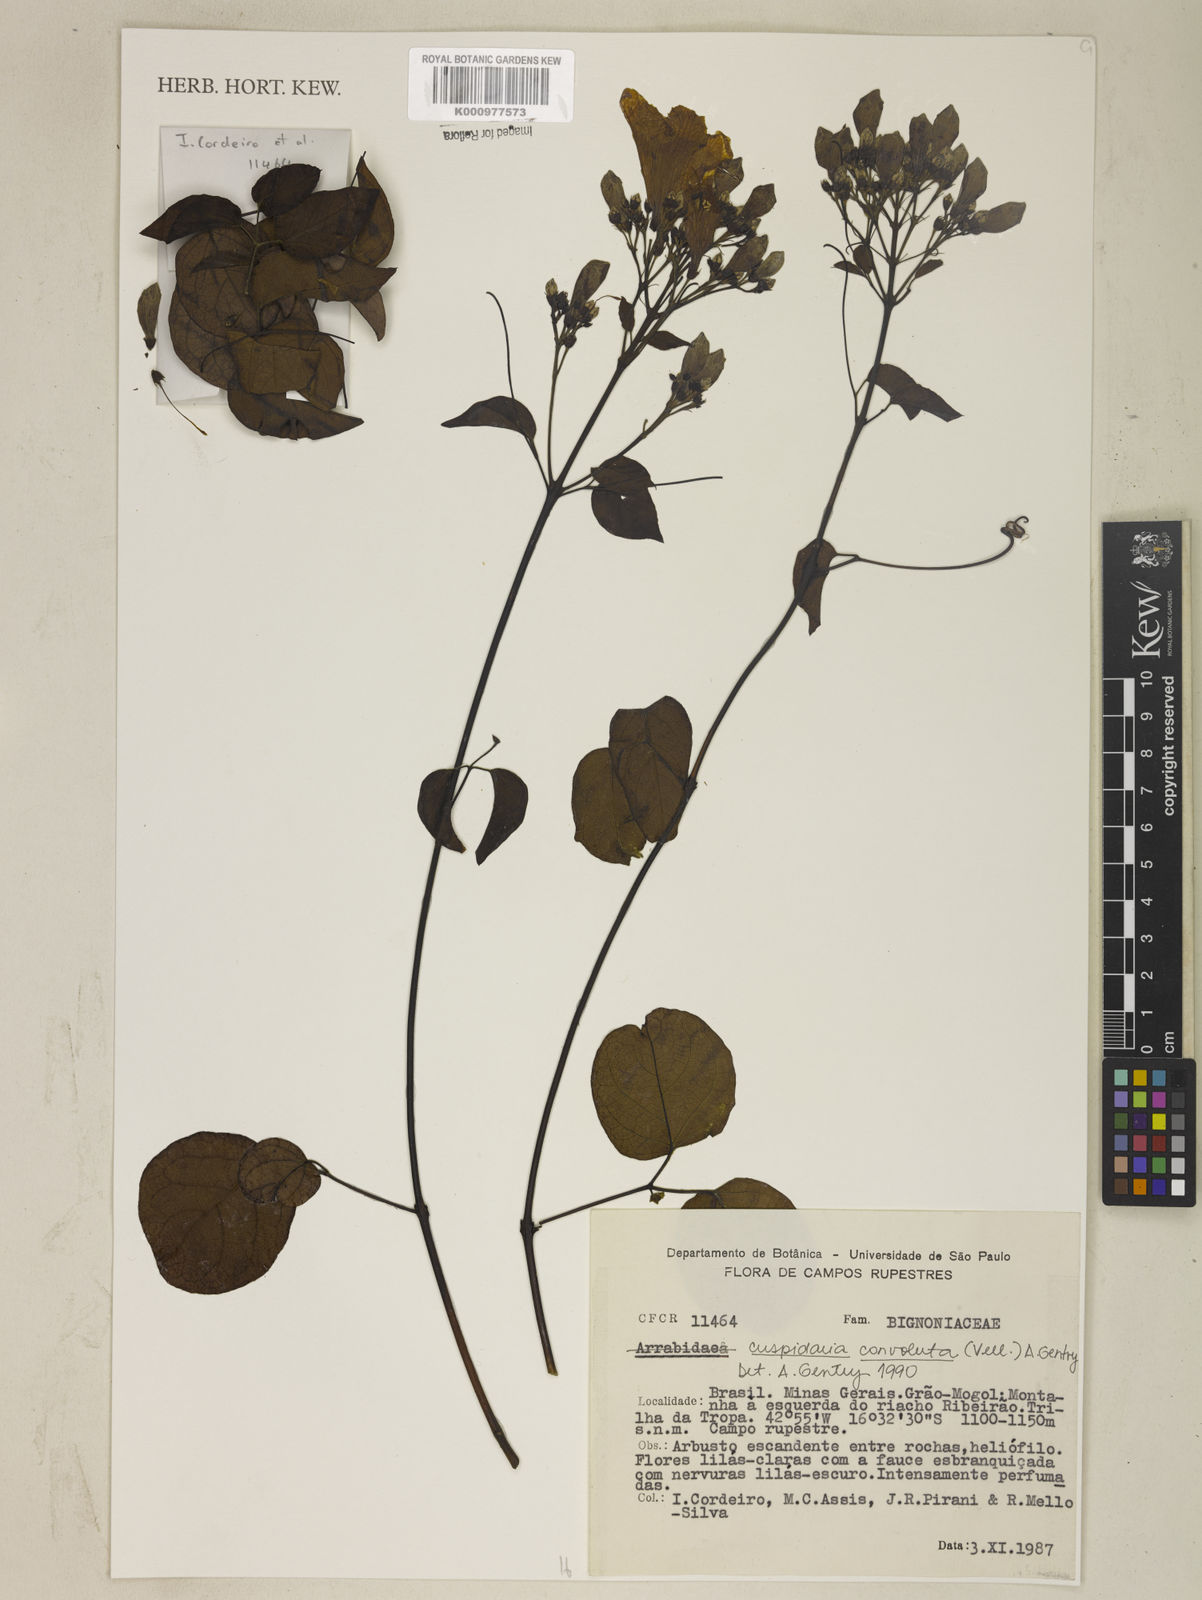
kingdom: Plantae
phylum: Tracheophyta
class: Magnoliopsida
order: Lamiales
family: Bignoniaceae
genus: Cuspidaria
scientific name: Cuspidaria convoluta
